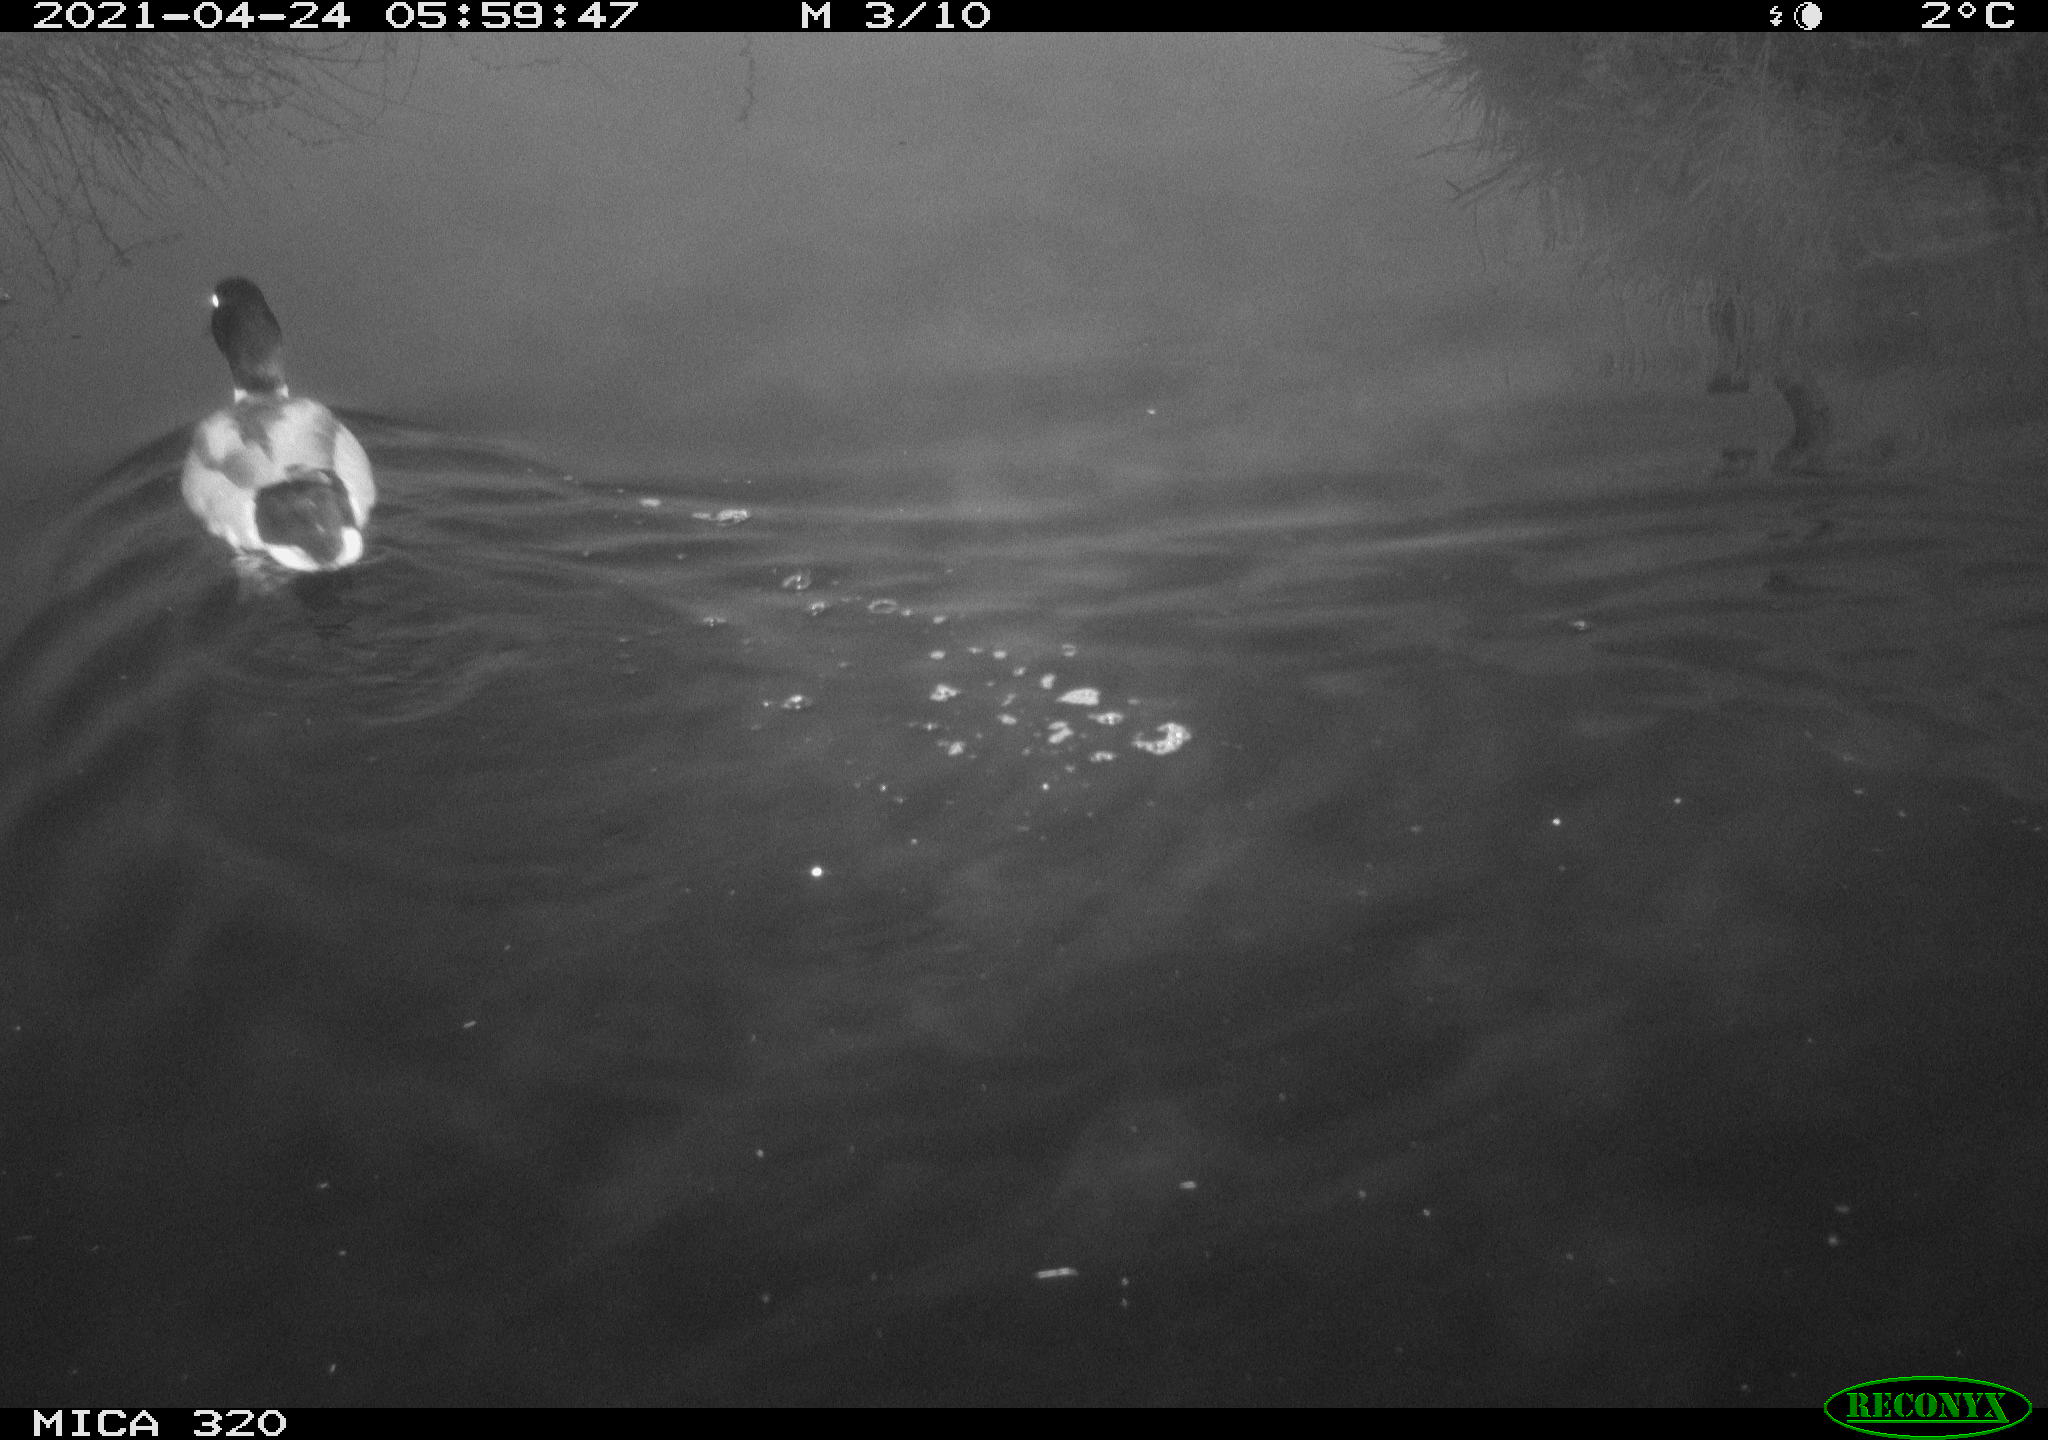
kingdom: Animalia
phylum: Chordata
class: Aves
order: Anseriformes
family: Anatidae
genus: Anas
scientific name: Anas platyrhynchos
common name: Mallard
